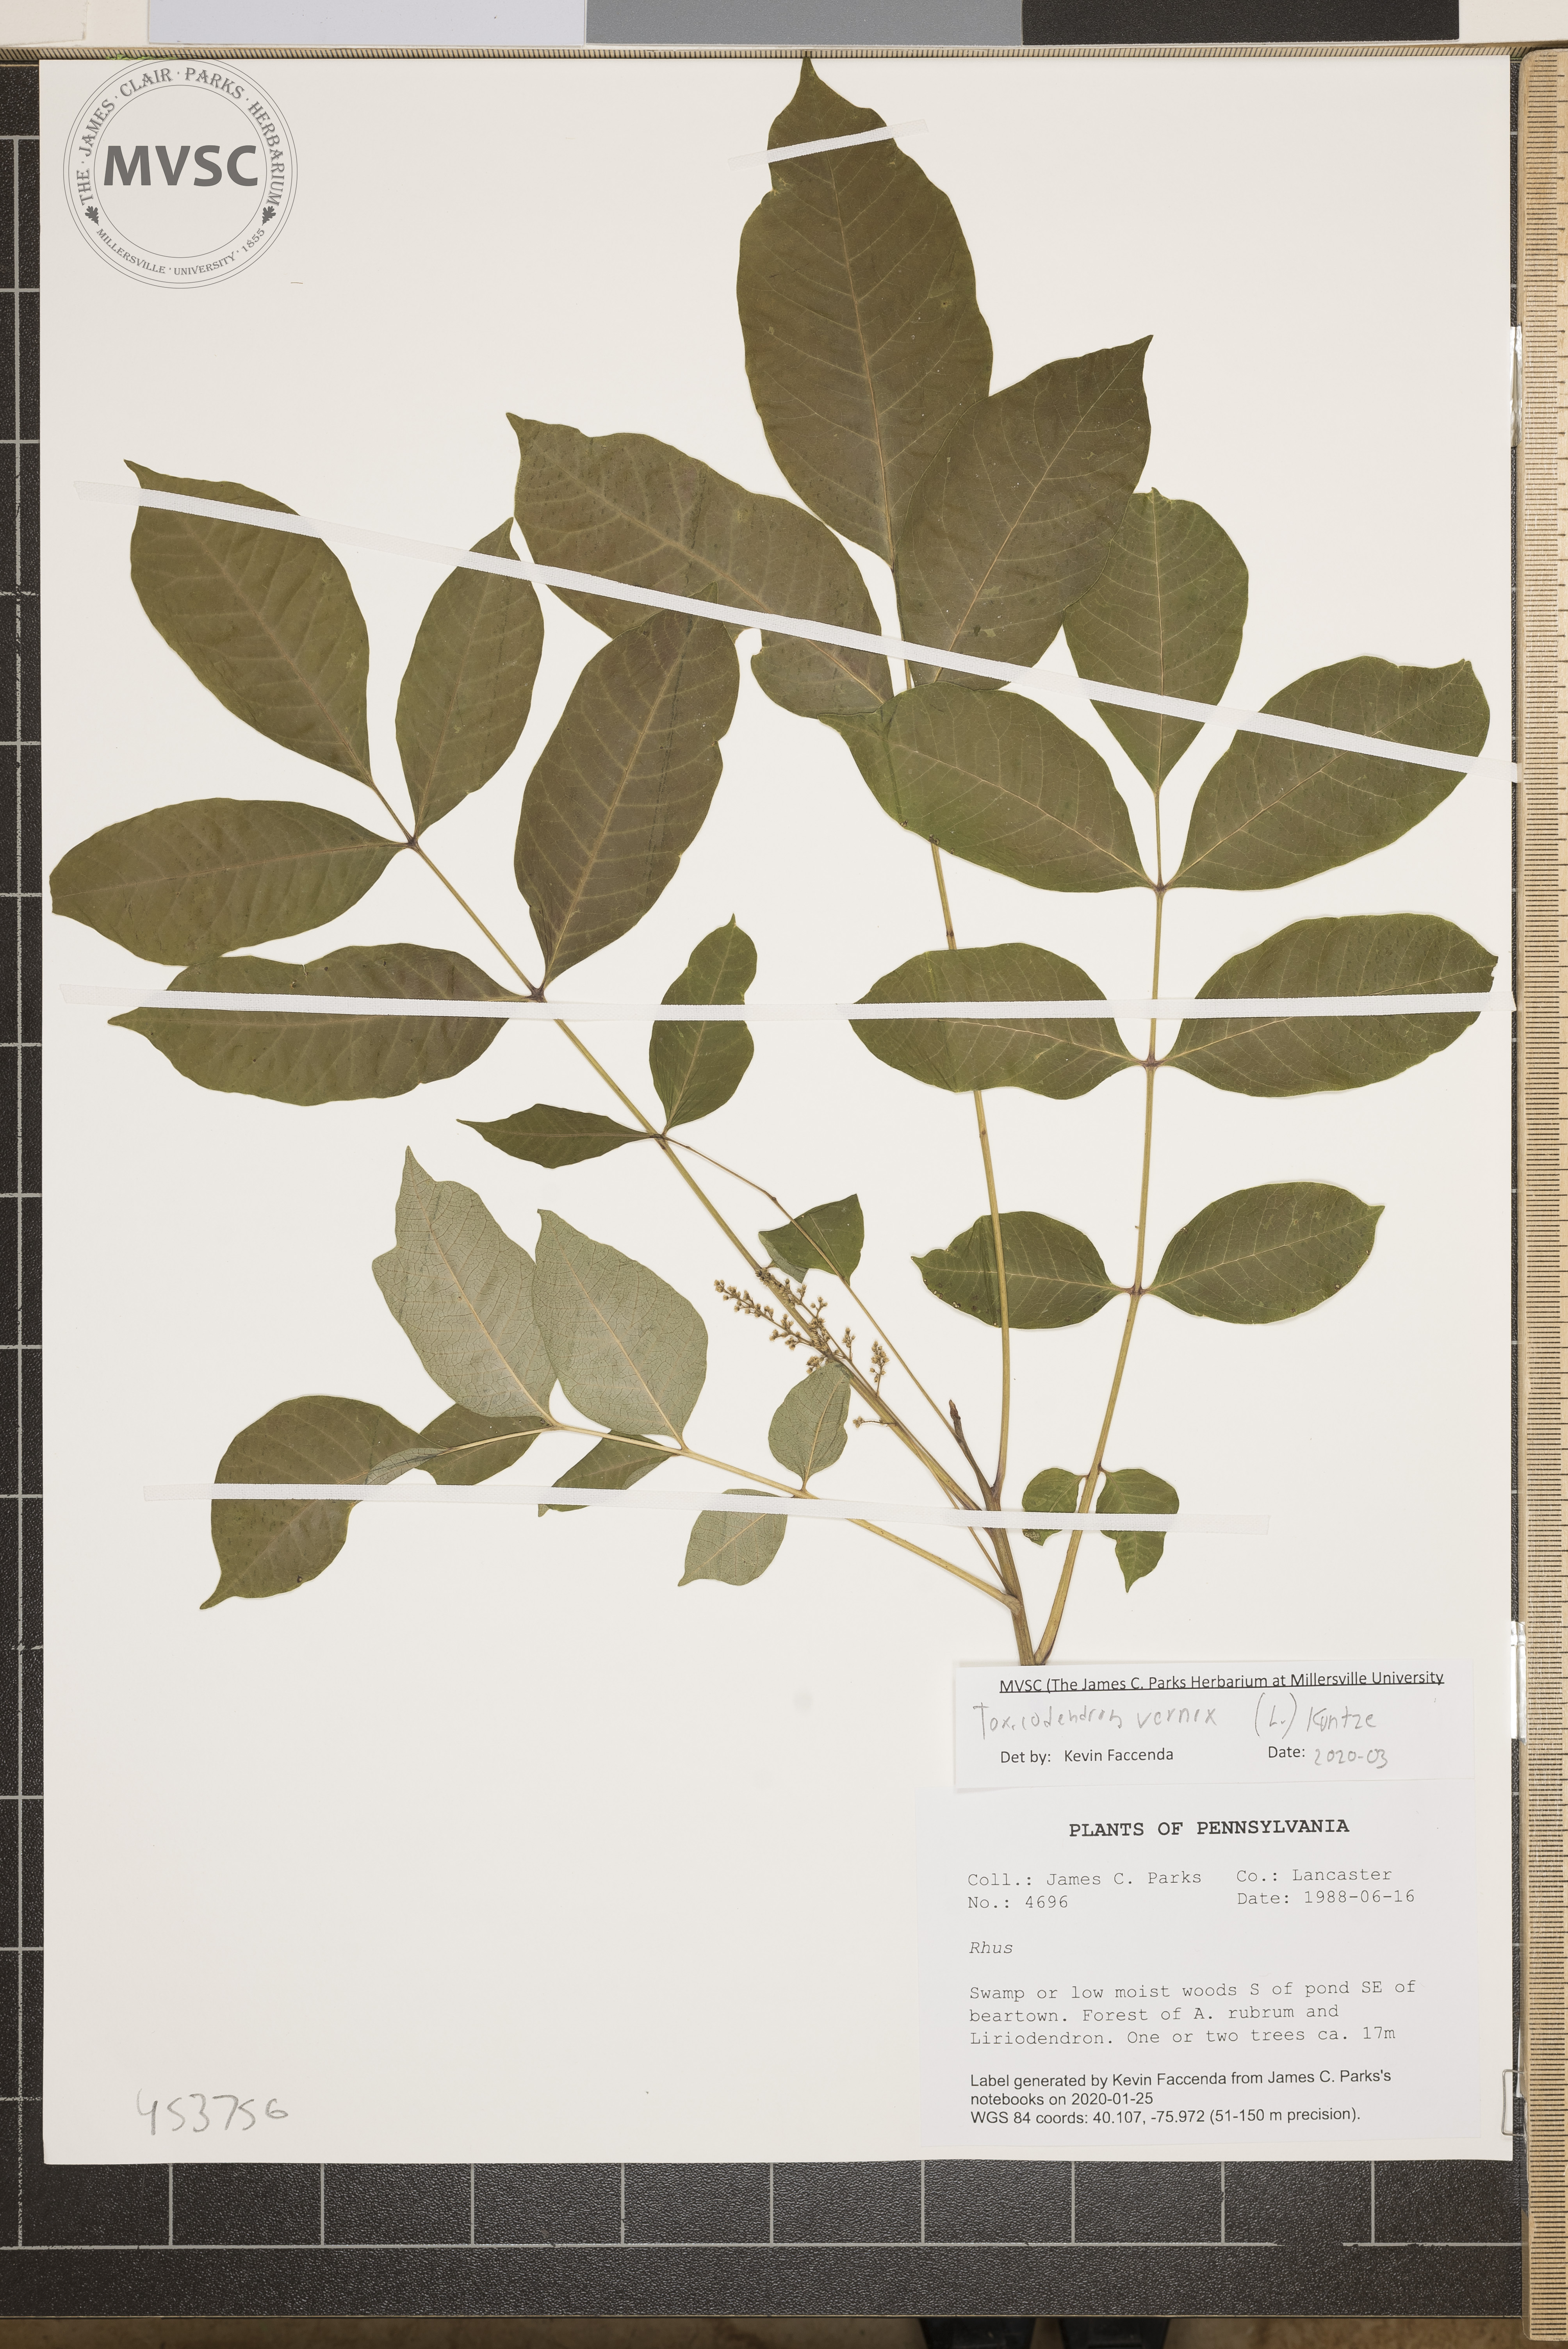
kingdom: Plantae
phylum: Tracheophyta
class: Magnoliopsida
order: Sapindales
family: Anacardiaceae
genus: Toxicodendron
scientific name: Toxicodendron vernix
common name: Poison sumac
